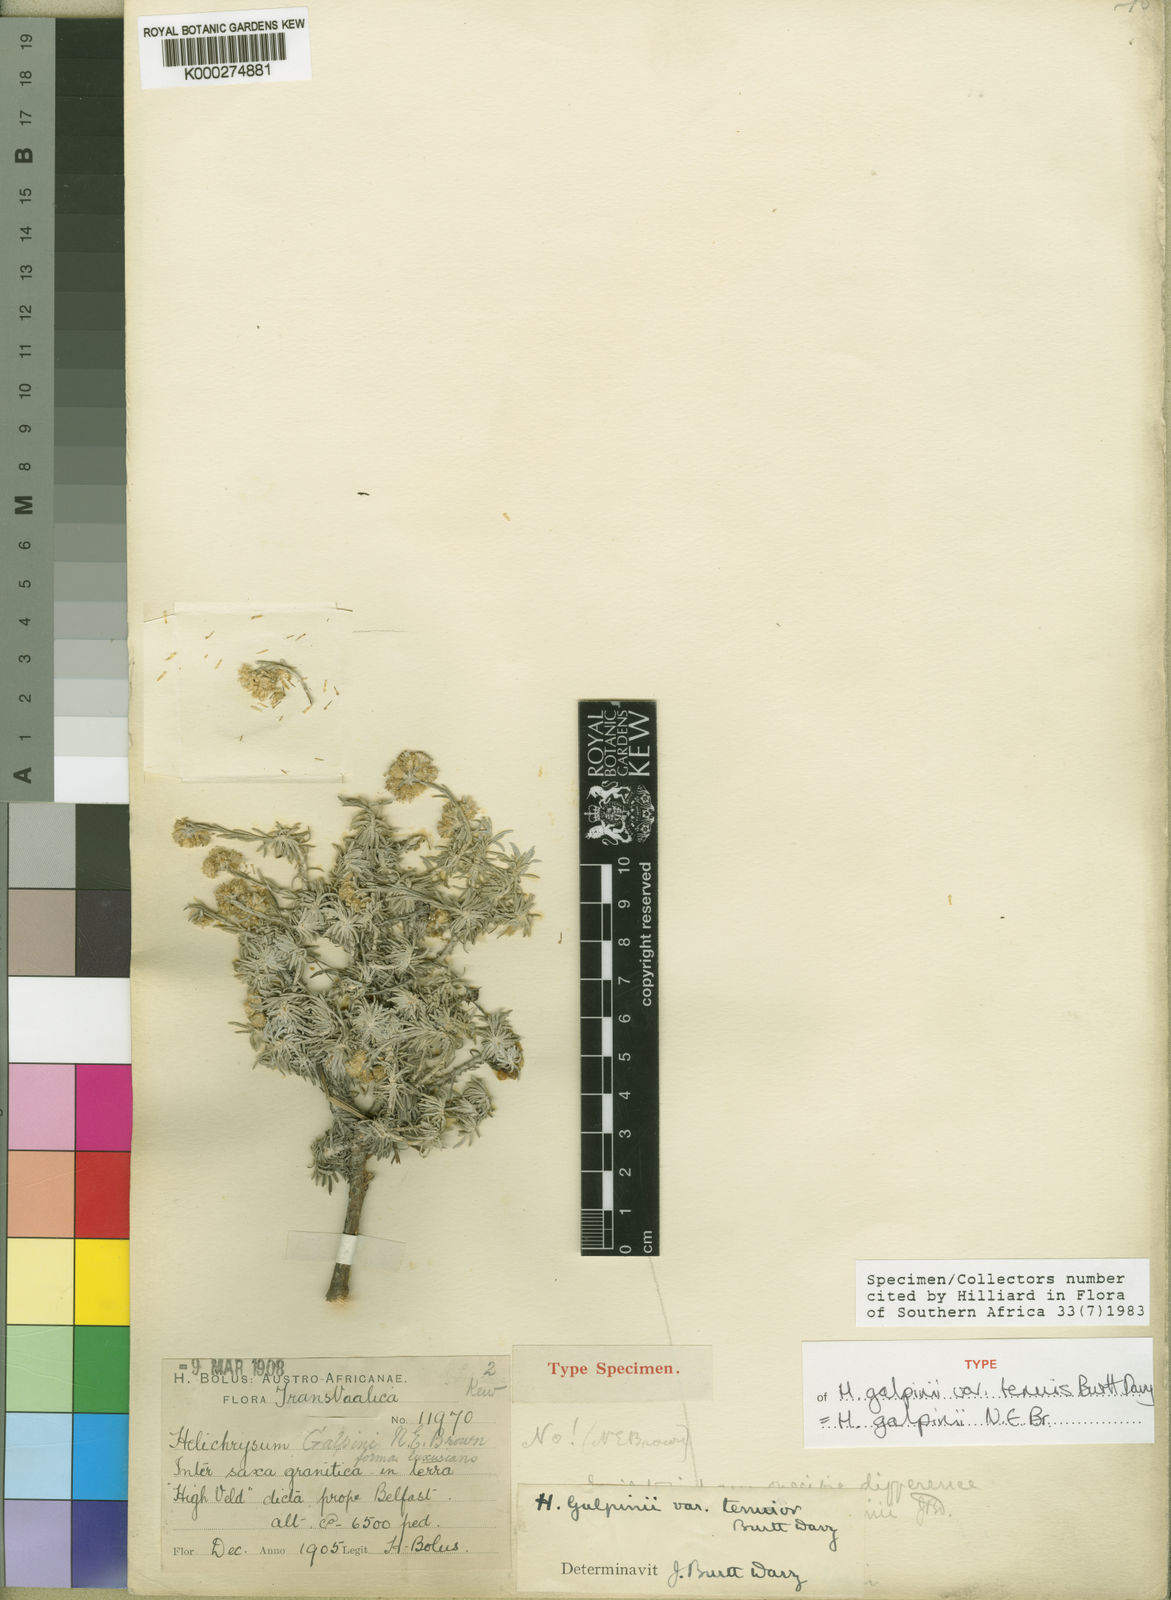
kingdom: Plantae
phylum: Tracheophyta
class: Magnoliopsida
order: Asterales
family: Asteraceae
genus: Helichrysum
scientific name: Helichrysum galpinii
